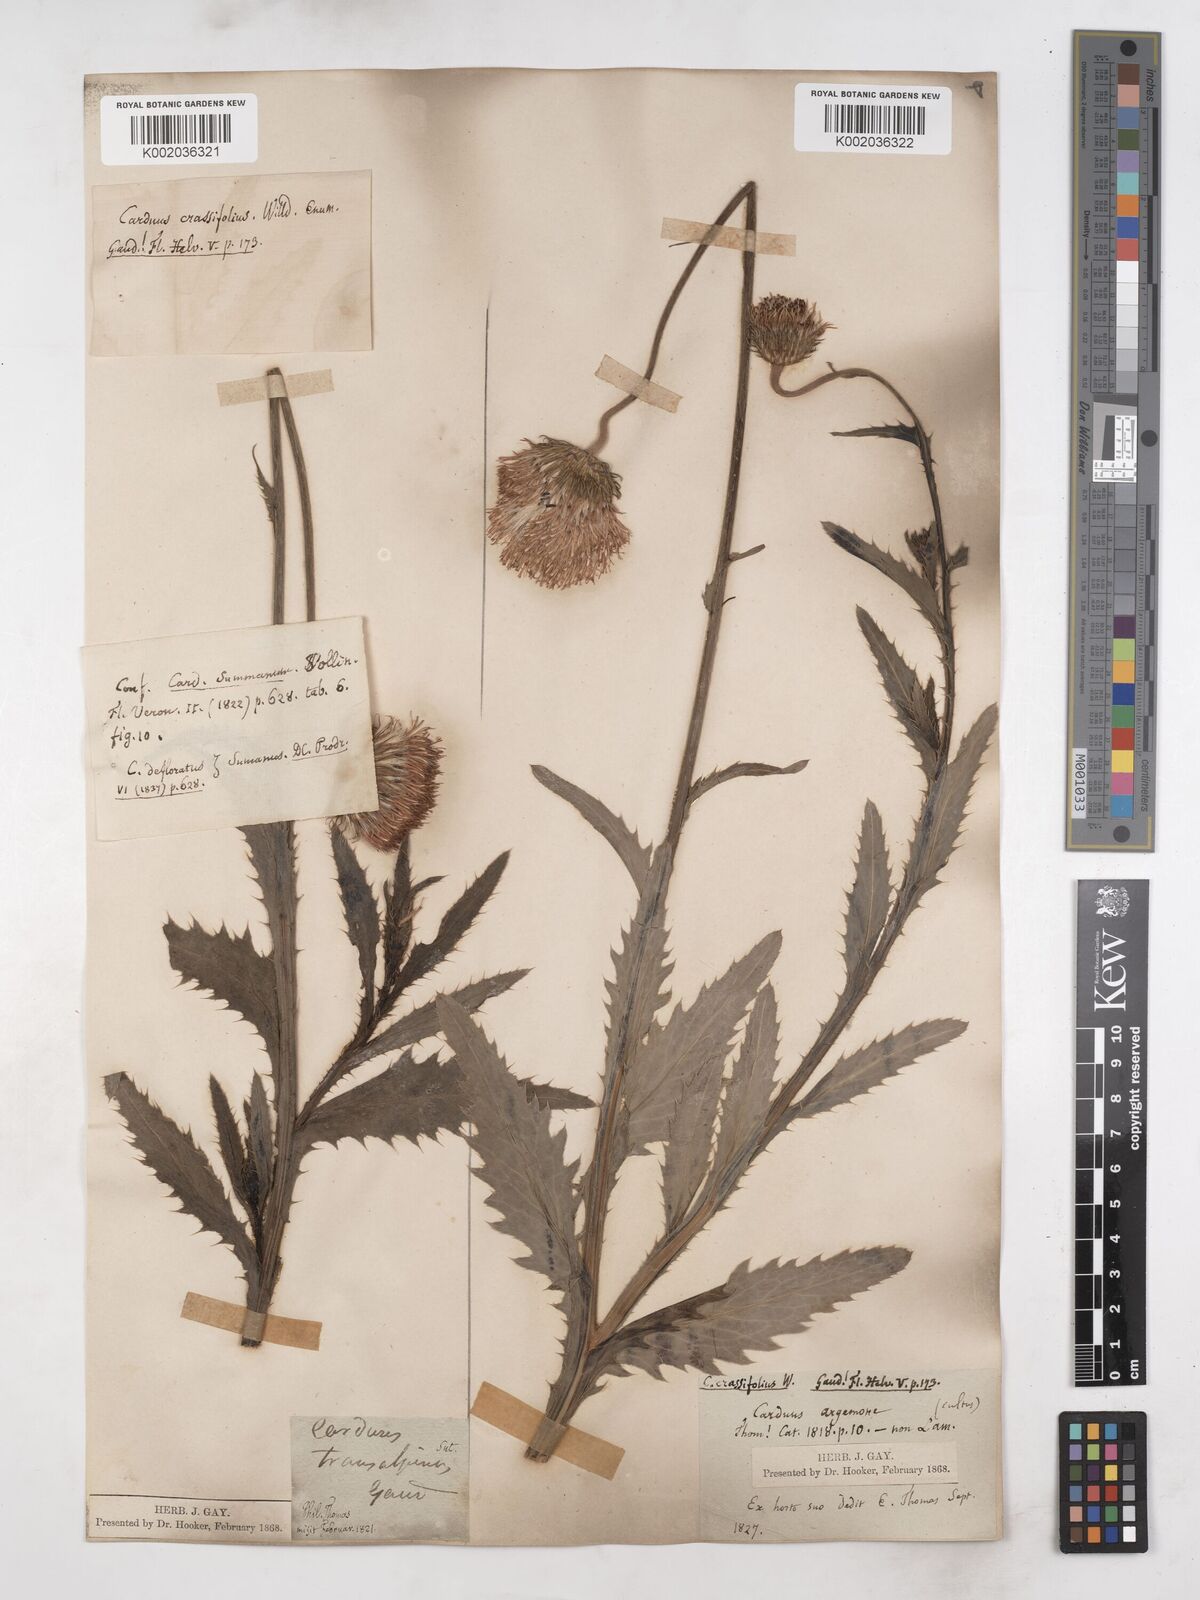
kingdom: Plantae
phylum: Tracheophyta
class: Magnoliopsida
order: Asterales
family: Asteraceae
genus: Carduus
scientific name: Carduus defloratus
